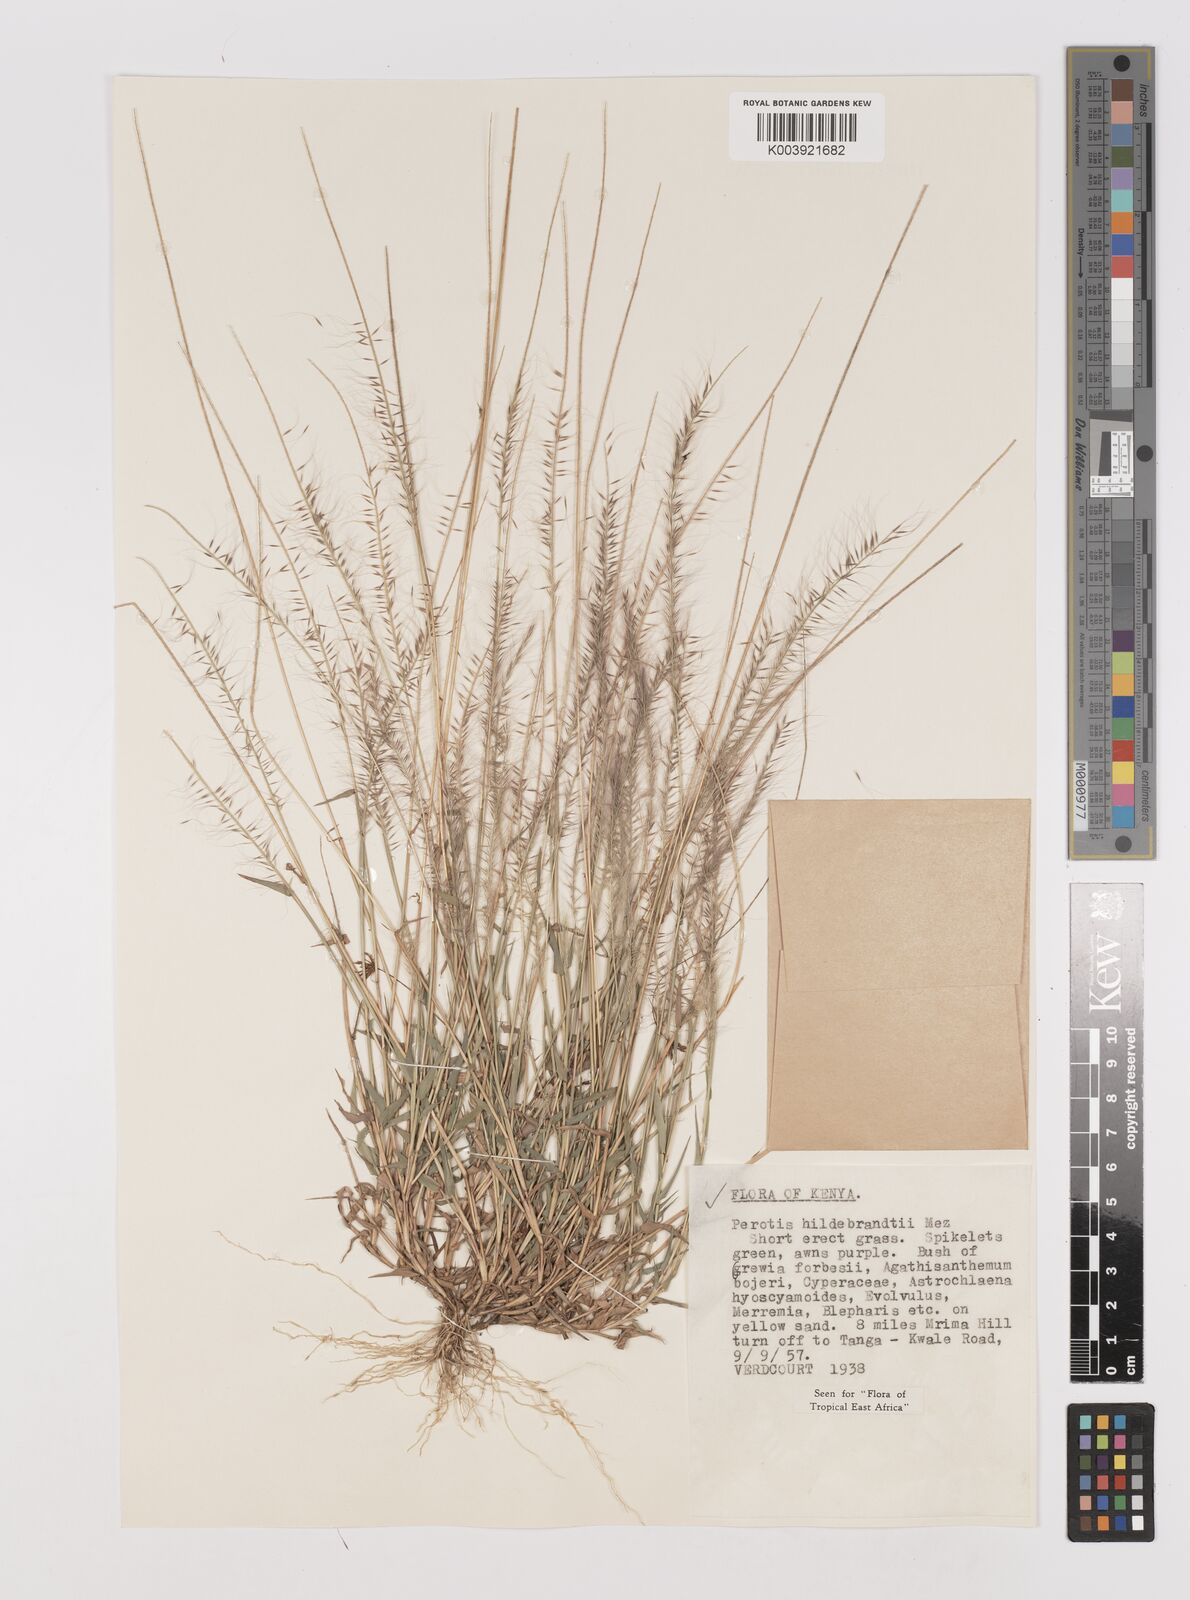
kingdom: Plantae
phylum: Tracheophyta
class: Liliopsida
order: Poales
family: Poaceae
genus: Perotis
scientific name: Perotis hildebrandtii
